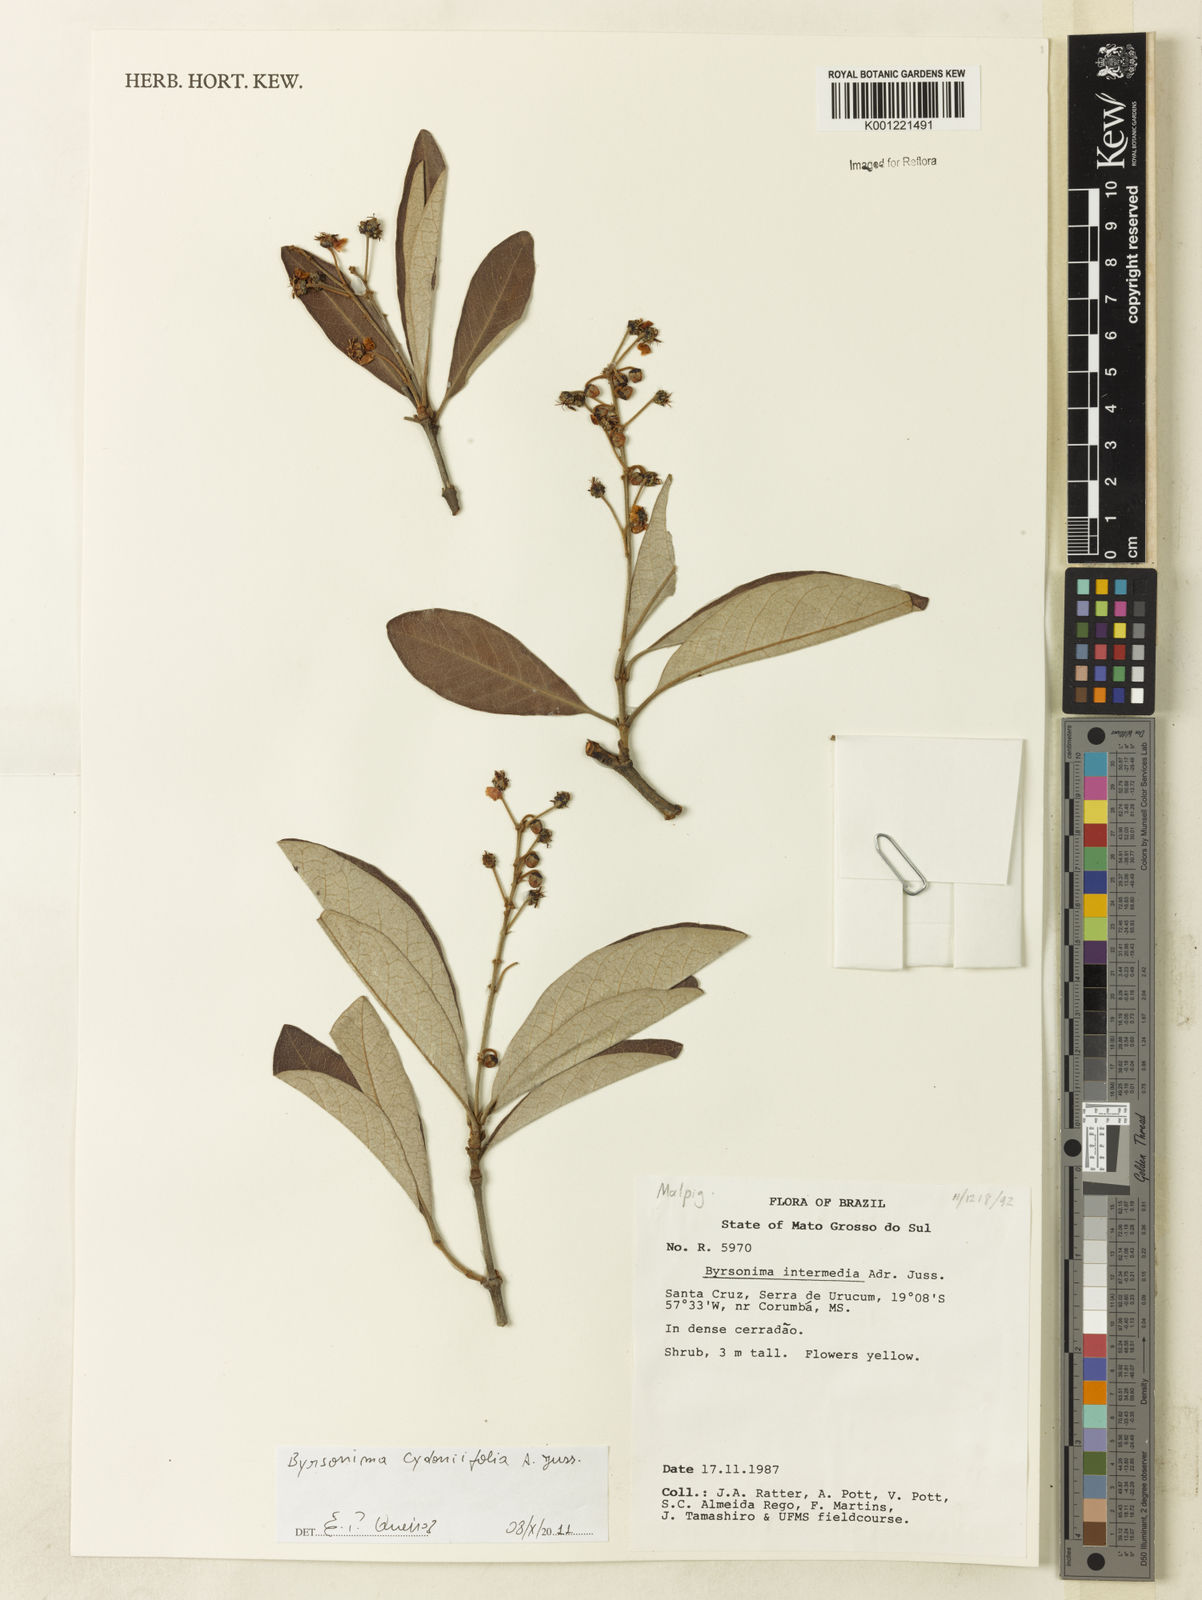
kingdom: Plantae
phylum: Tracheophyta
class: Magnoliopsida
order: Malpighiales
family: Malpighiaceae
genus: Byrsonima
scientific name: Byrsonima cydoniifolia
